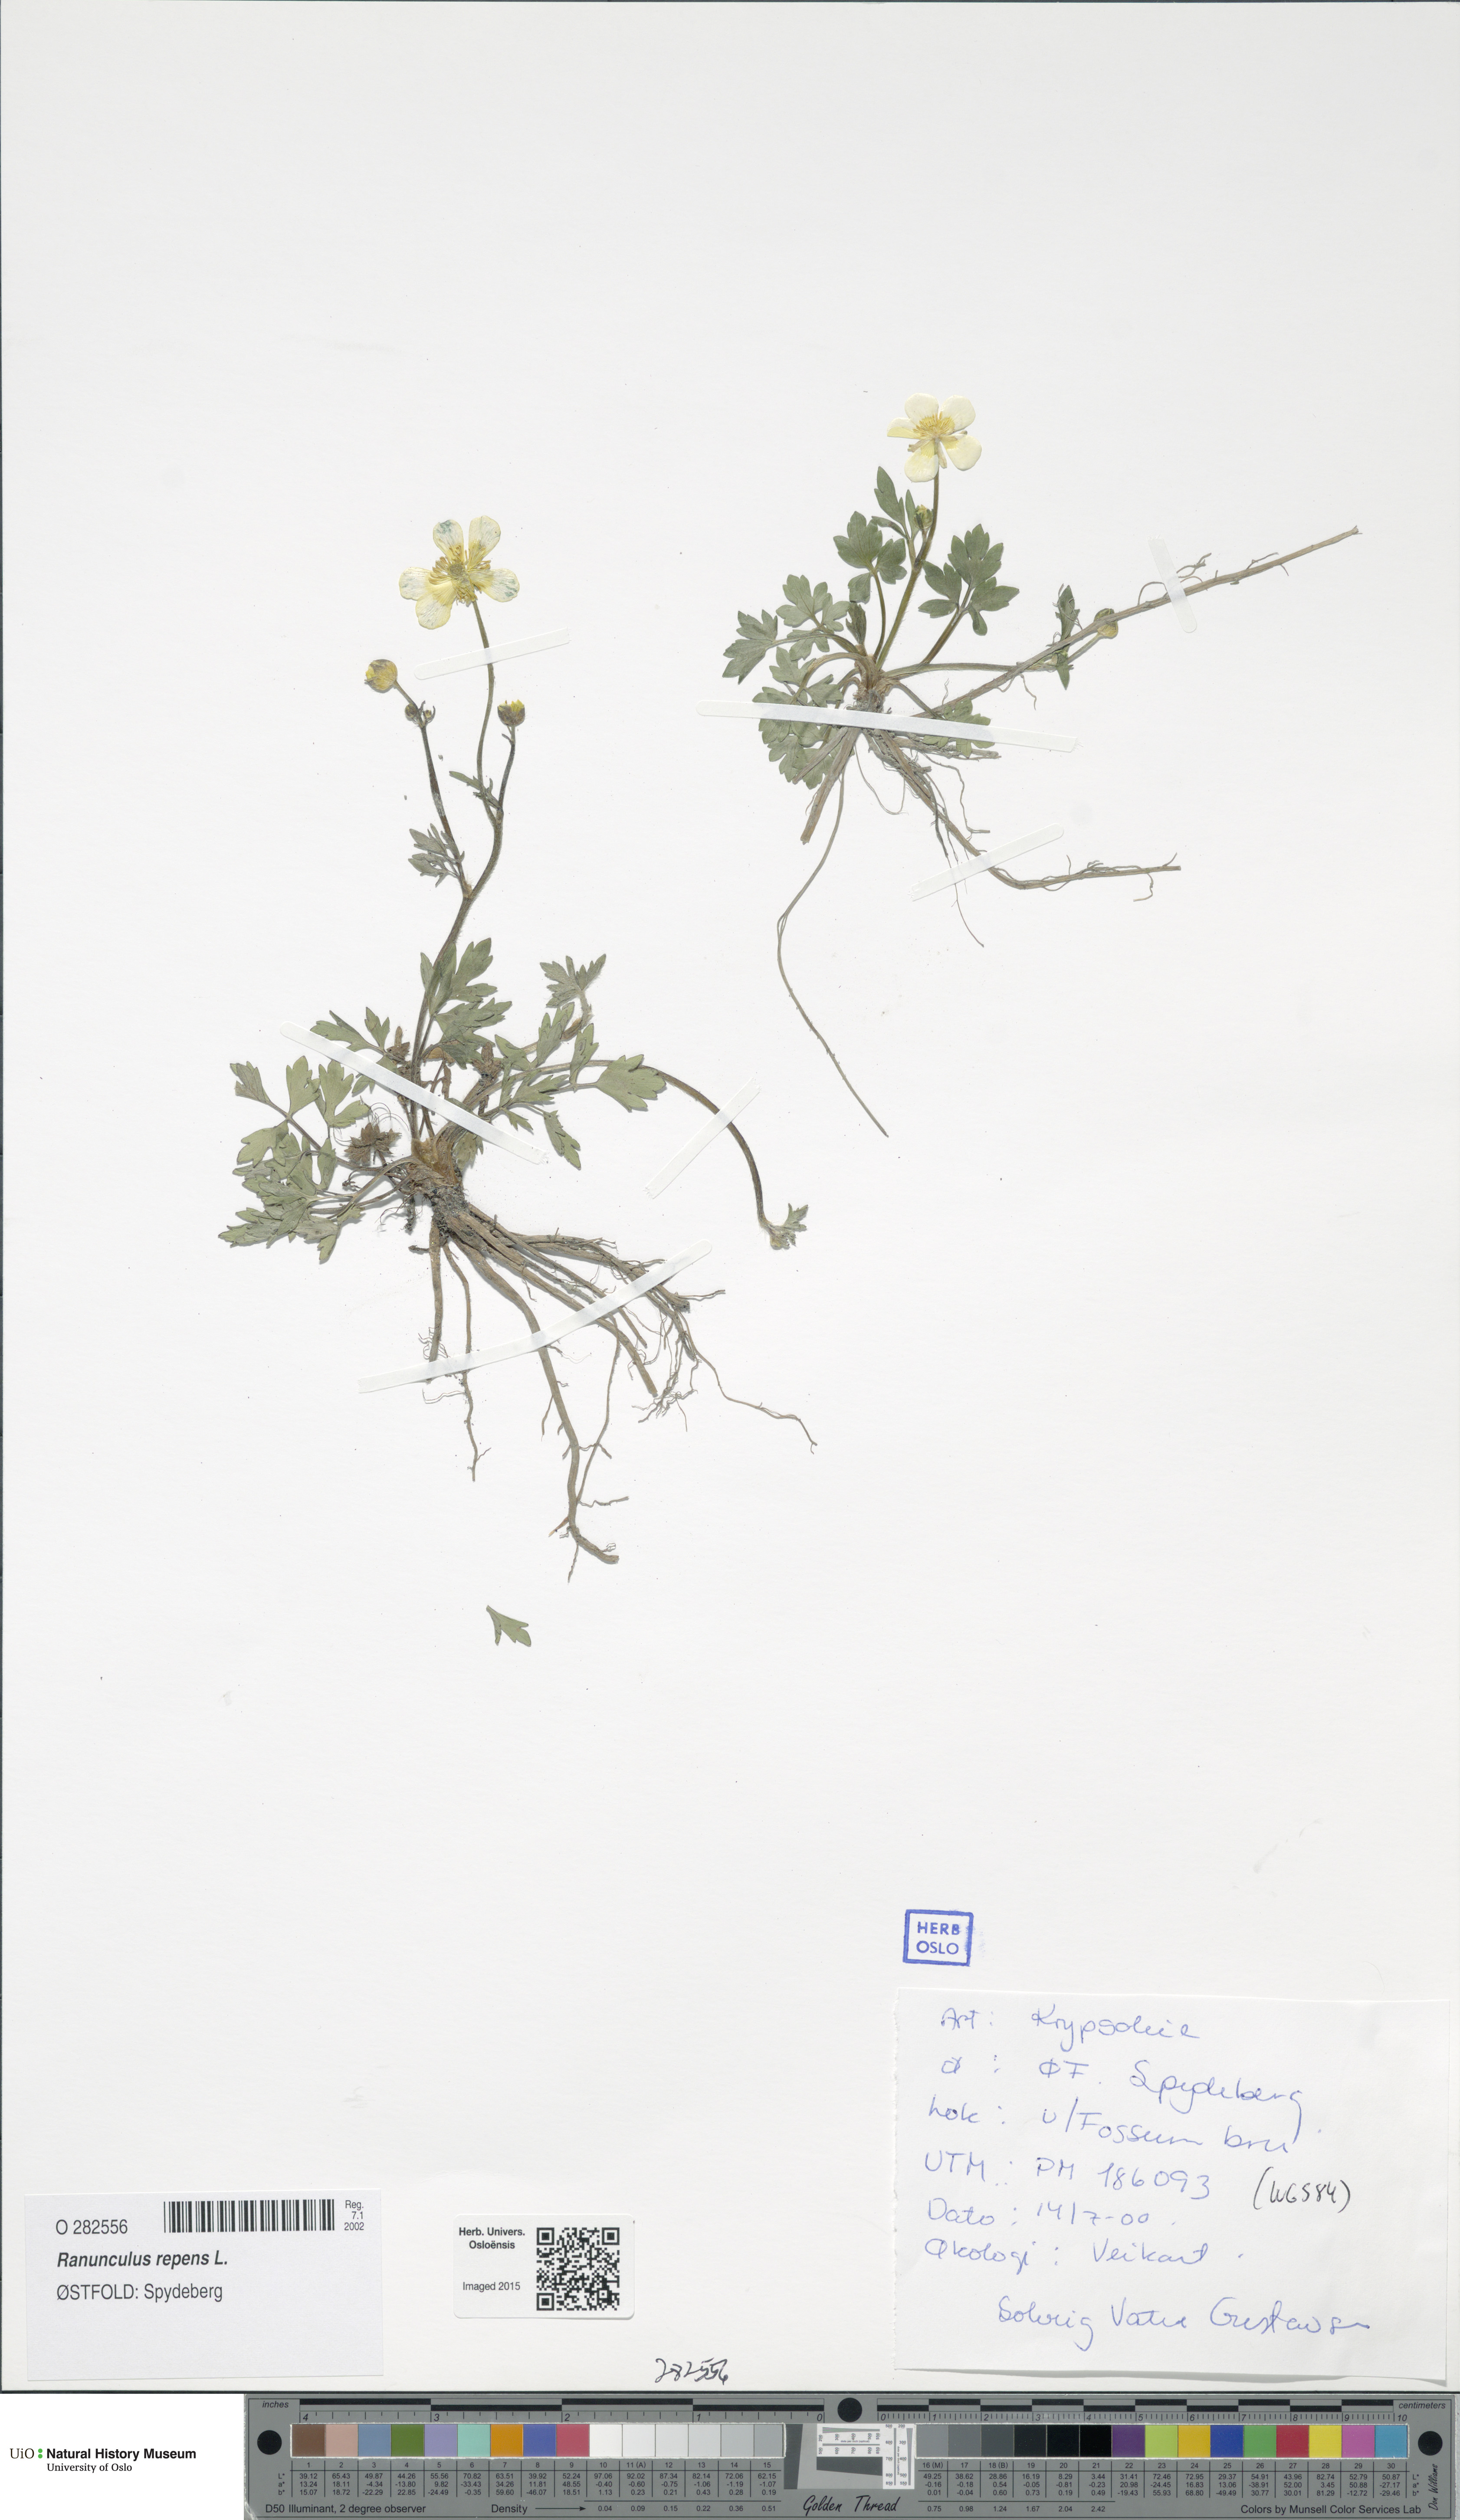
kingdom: Plantae
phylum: Tracheophyta
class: Magnoliopsida
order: Ranunculales
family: Ranunculaceae
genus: Ranunculus
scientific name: Ranunculus repens
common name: Creeping buttercup
